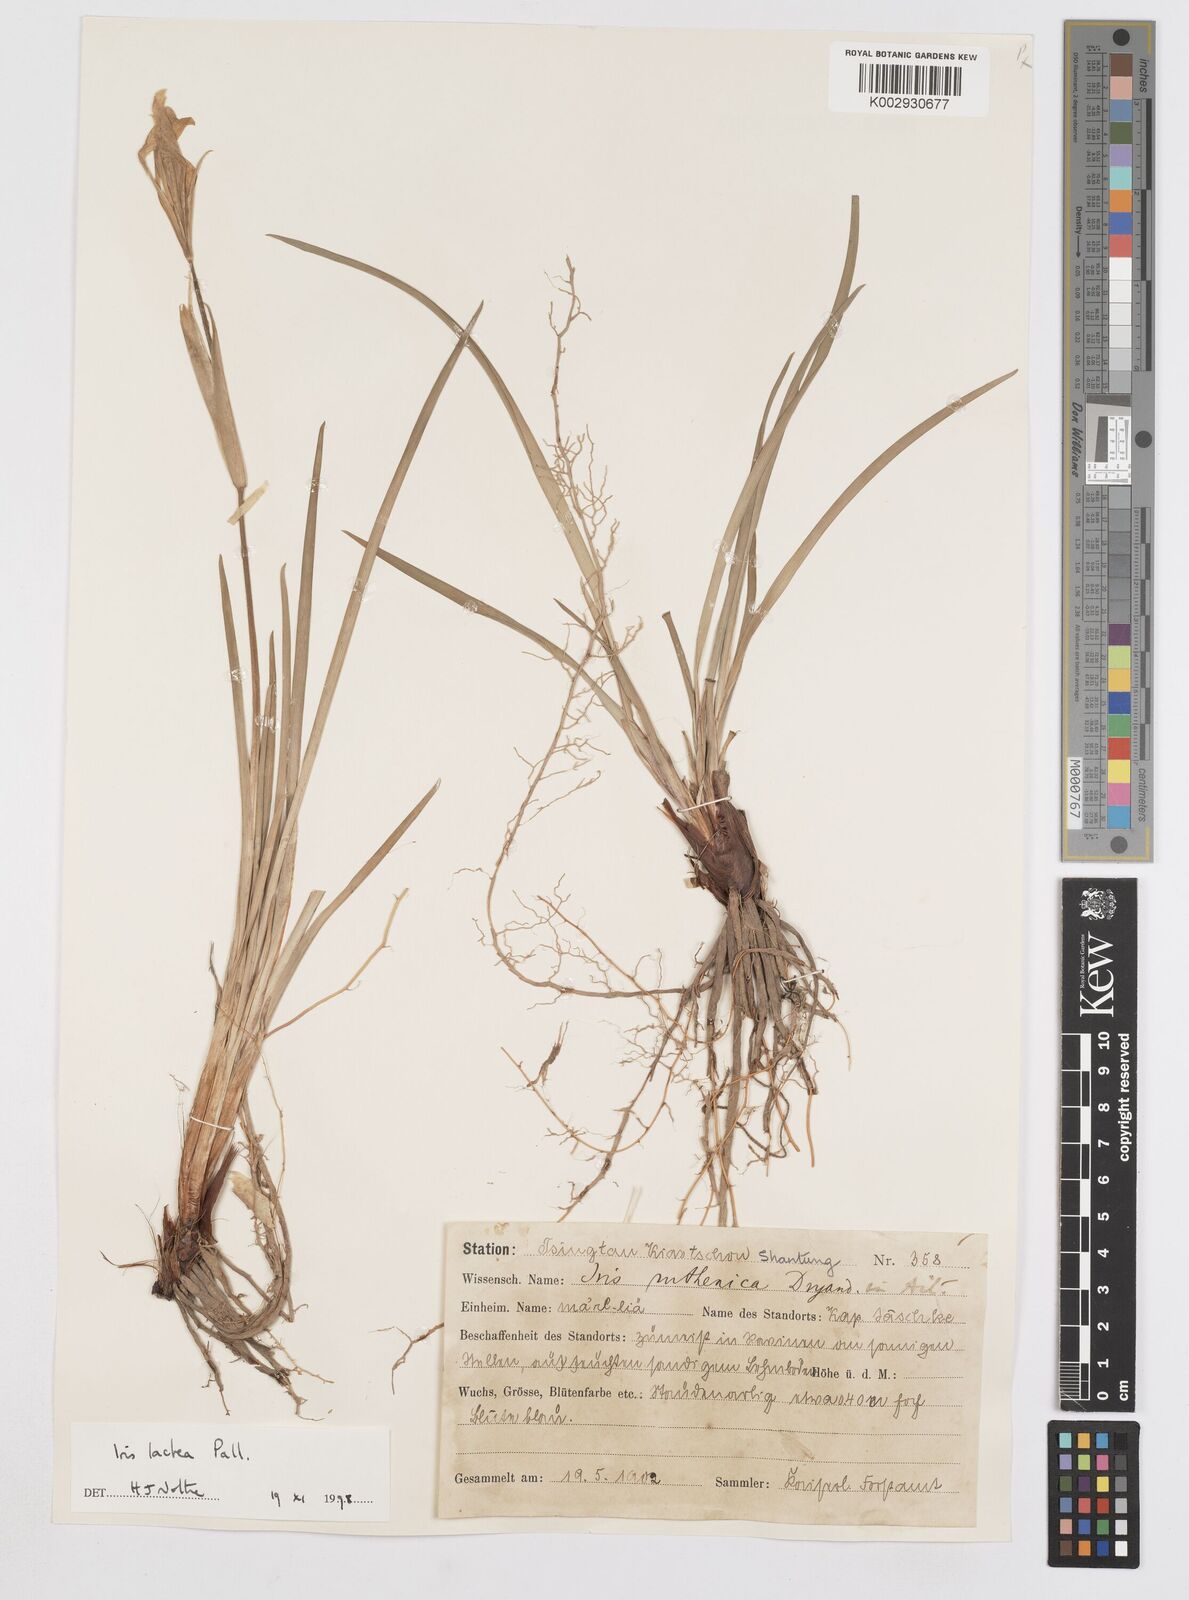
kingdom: Plantae
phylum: Tracheophyta
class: Liliopsida
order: Asparagales
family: Iridaceae
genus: Iris
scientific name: Iris ensata
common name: Beaked iris
